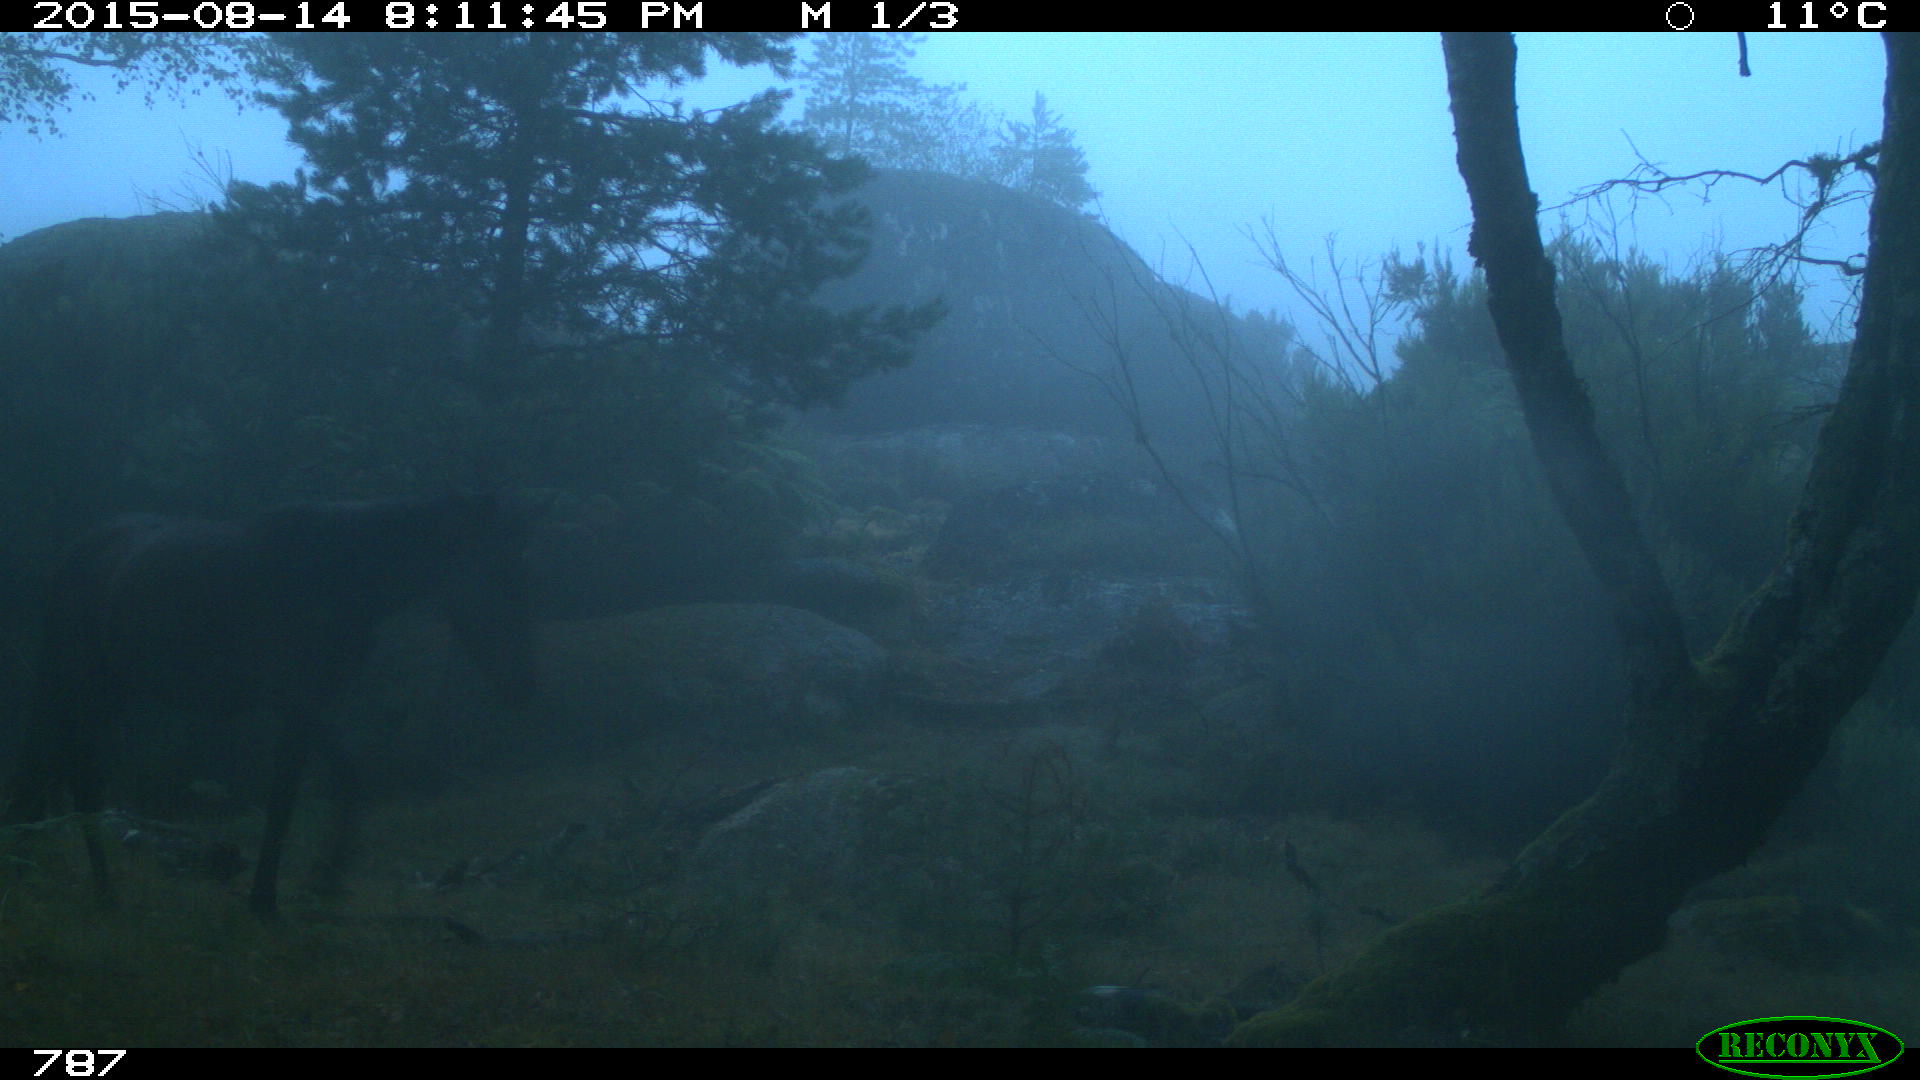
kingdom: Animalia
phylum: Chordata
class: Mammalia
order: Perissodactyla
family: Equidae
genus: Equus
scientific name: Equus caballus
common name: Horse
